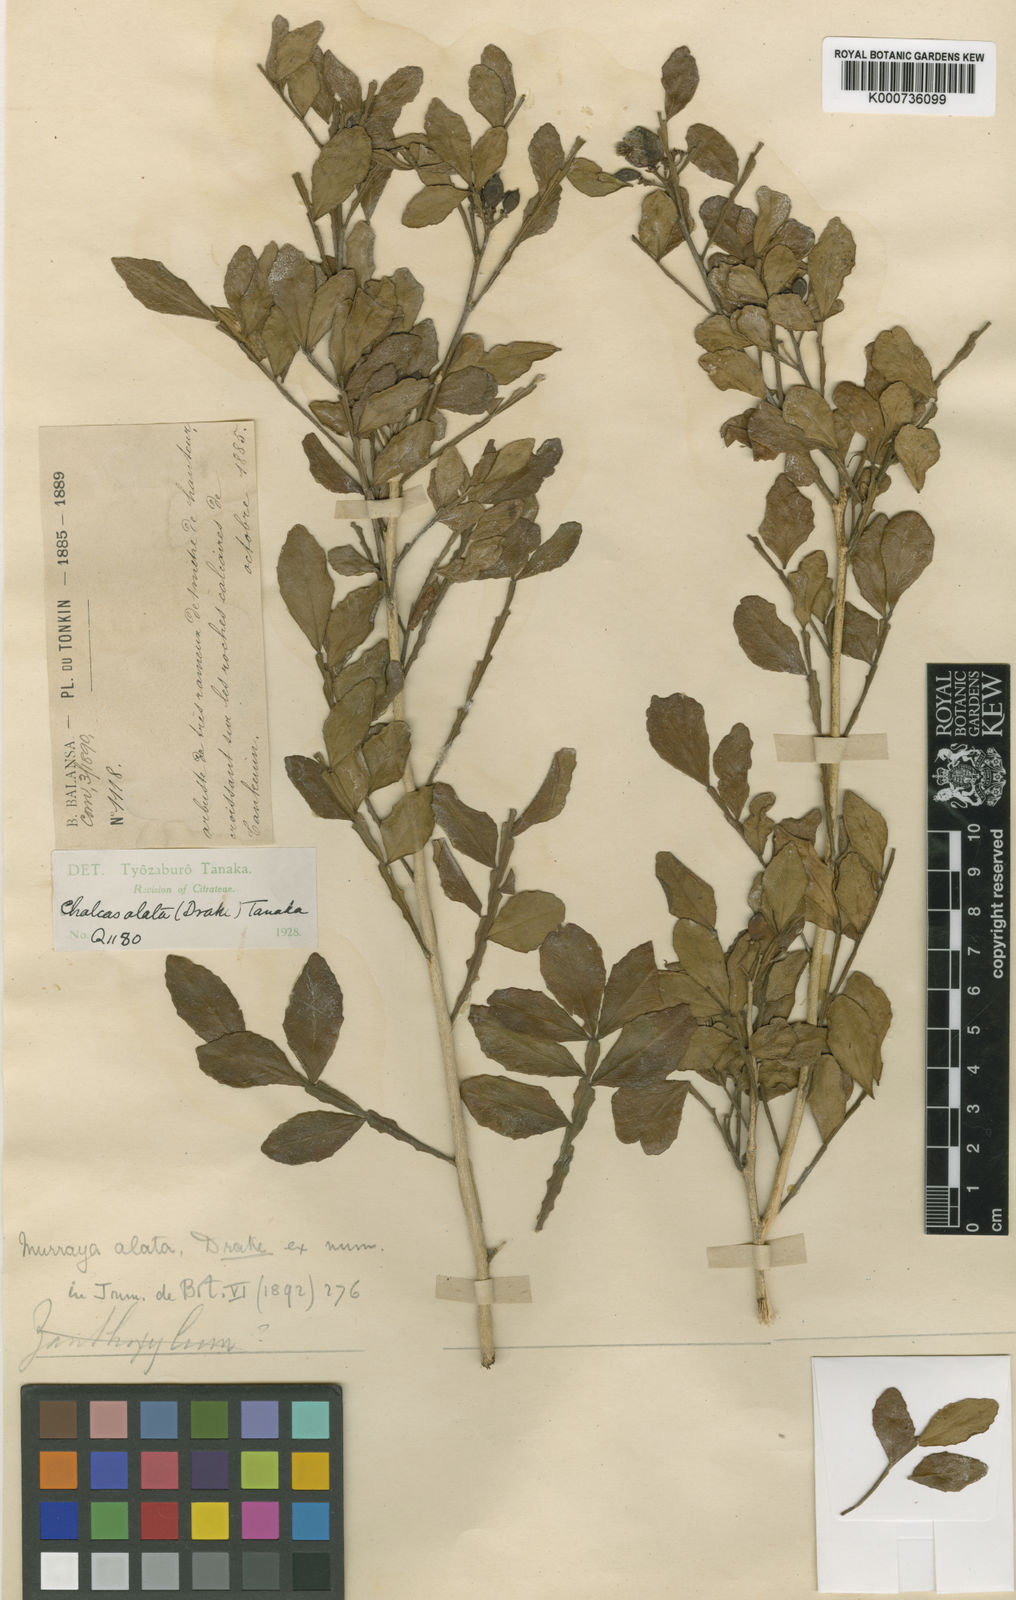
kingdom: Plantae
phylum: Tracheophyta
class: Magnoliopsida
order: Sapindales
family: Rutaceae
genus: Murraya
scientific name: Murraya alata
